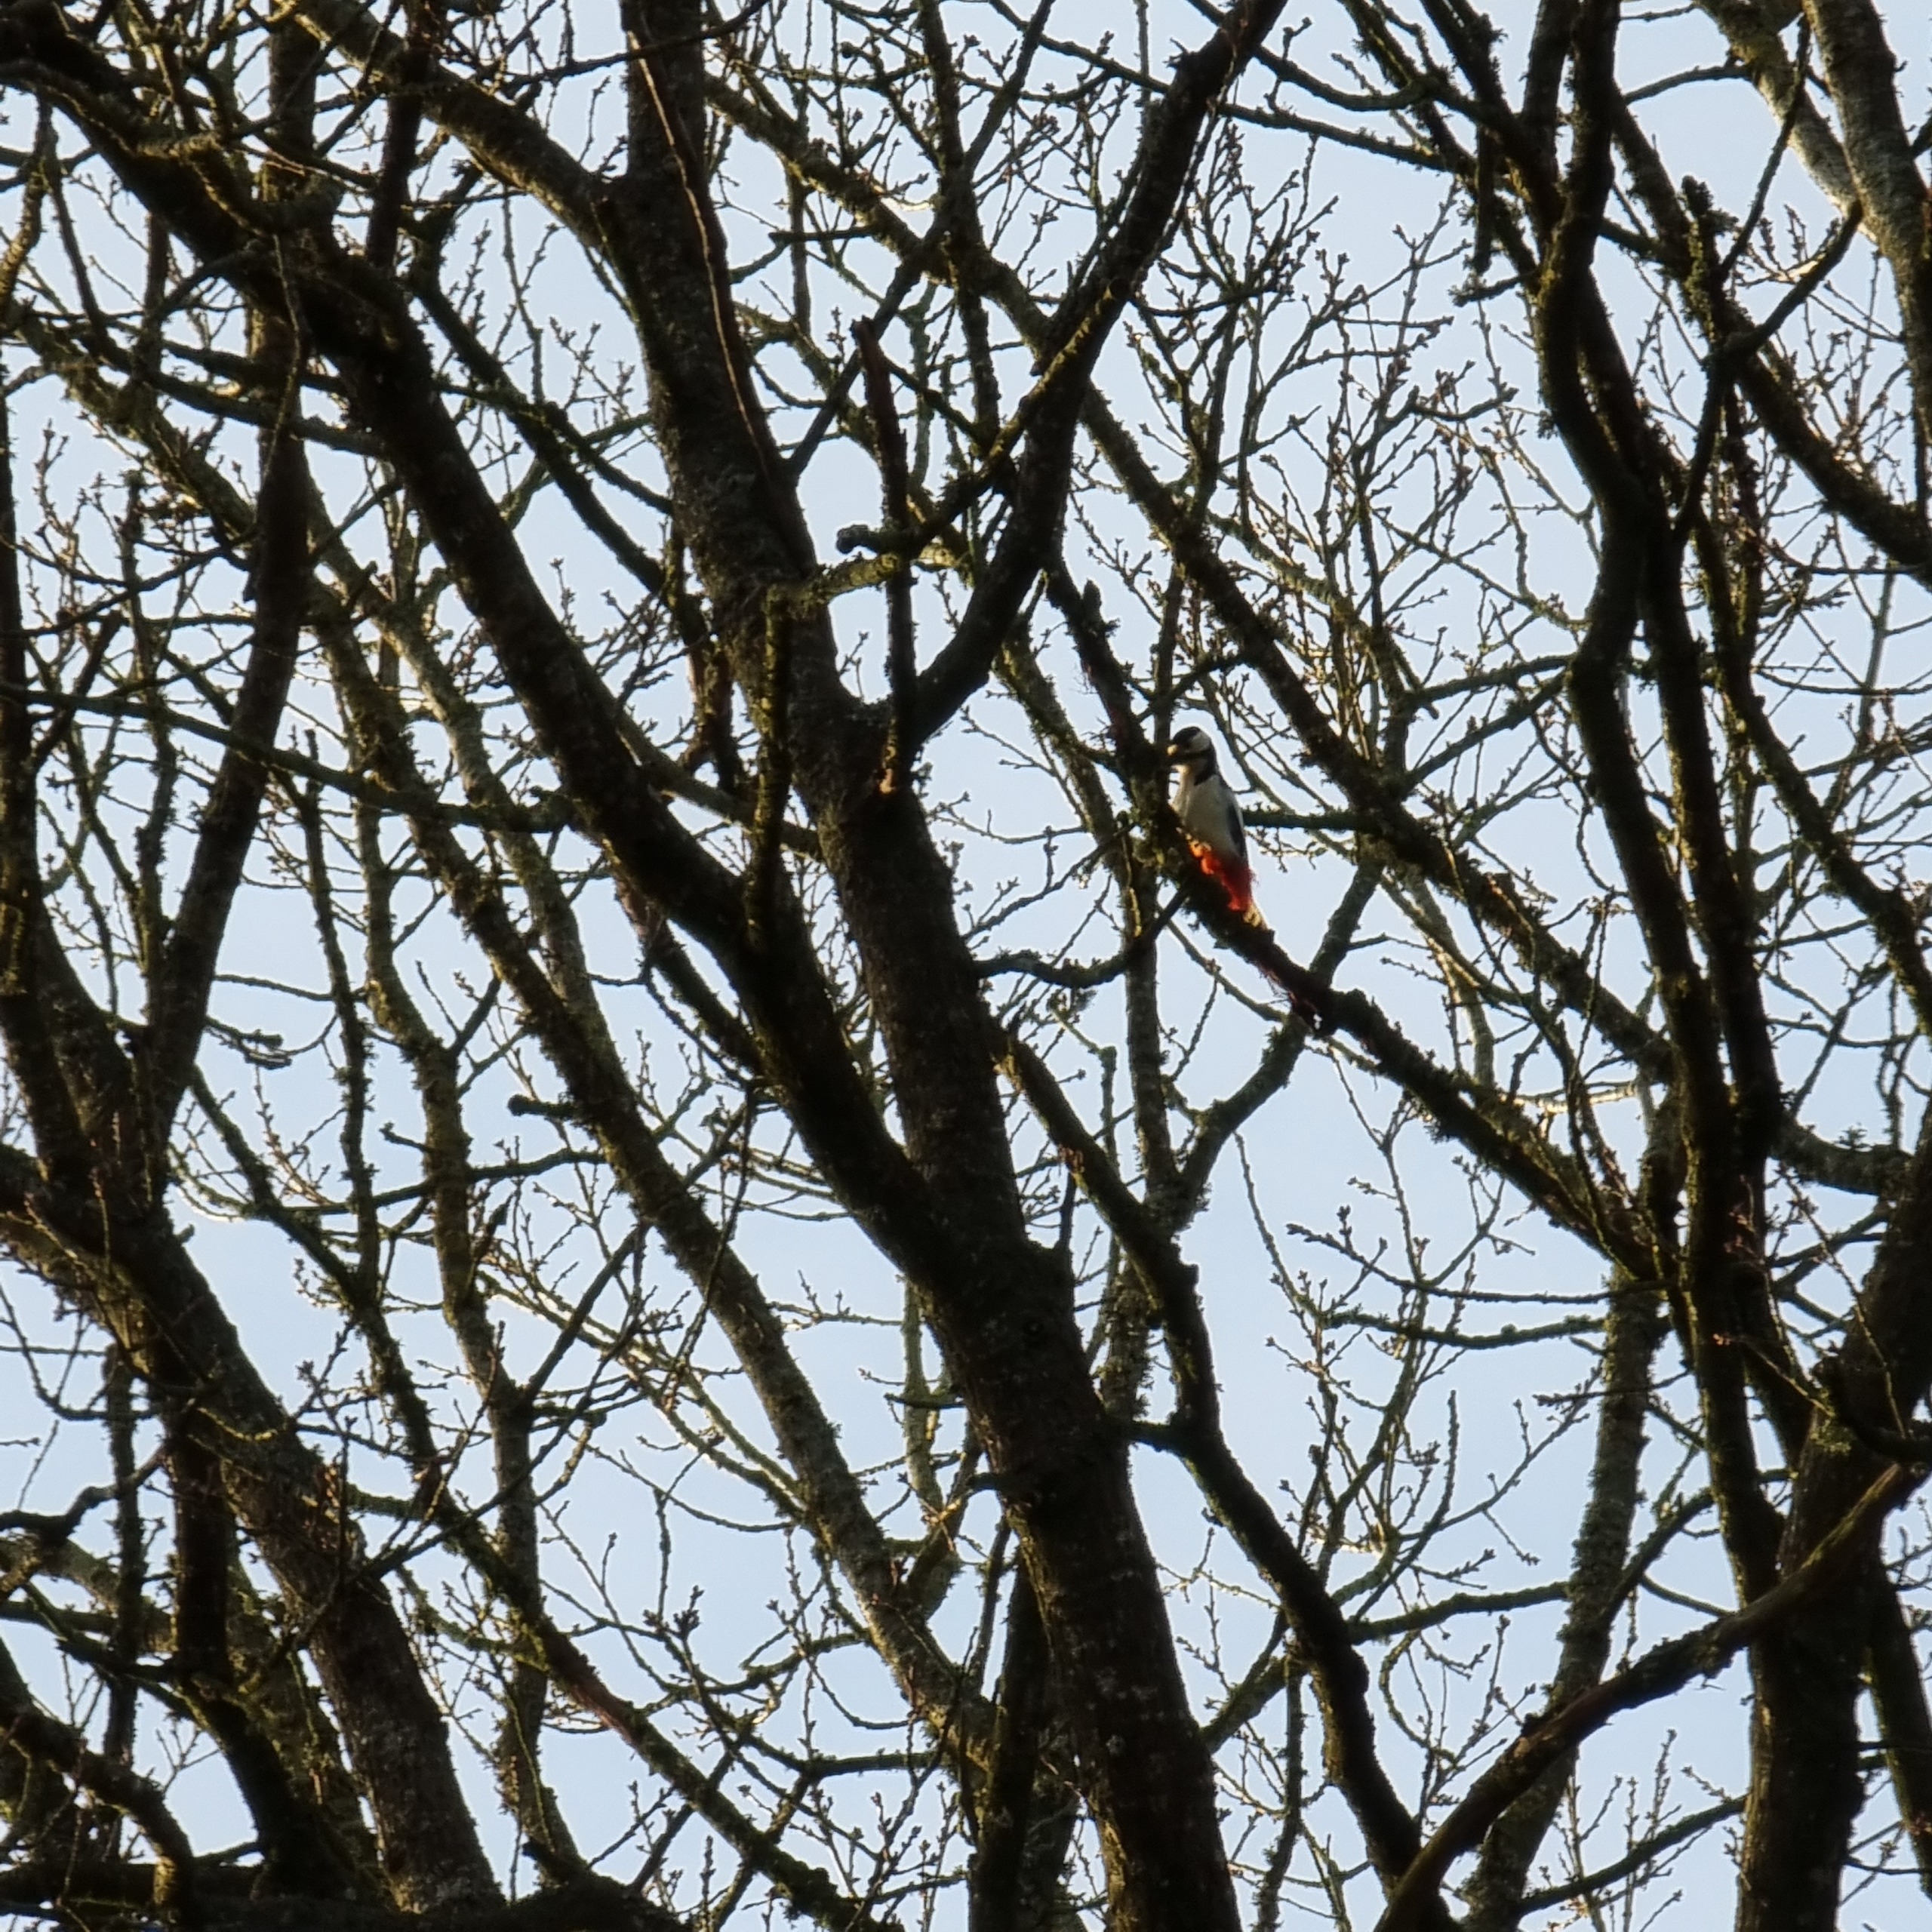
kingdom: Animalia
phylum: Chordata
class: Aves
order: Piciformes
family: Picidae
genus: Dendrocopos
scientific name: Dendrocopos major
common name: Stor flagspætte
